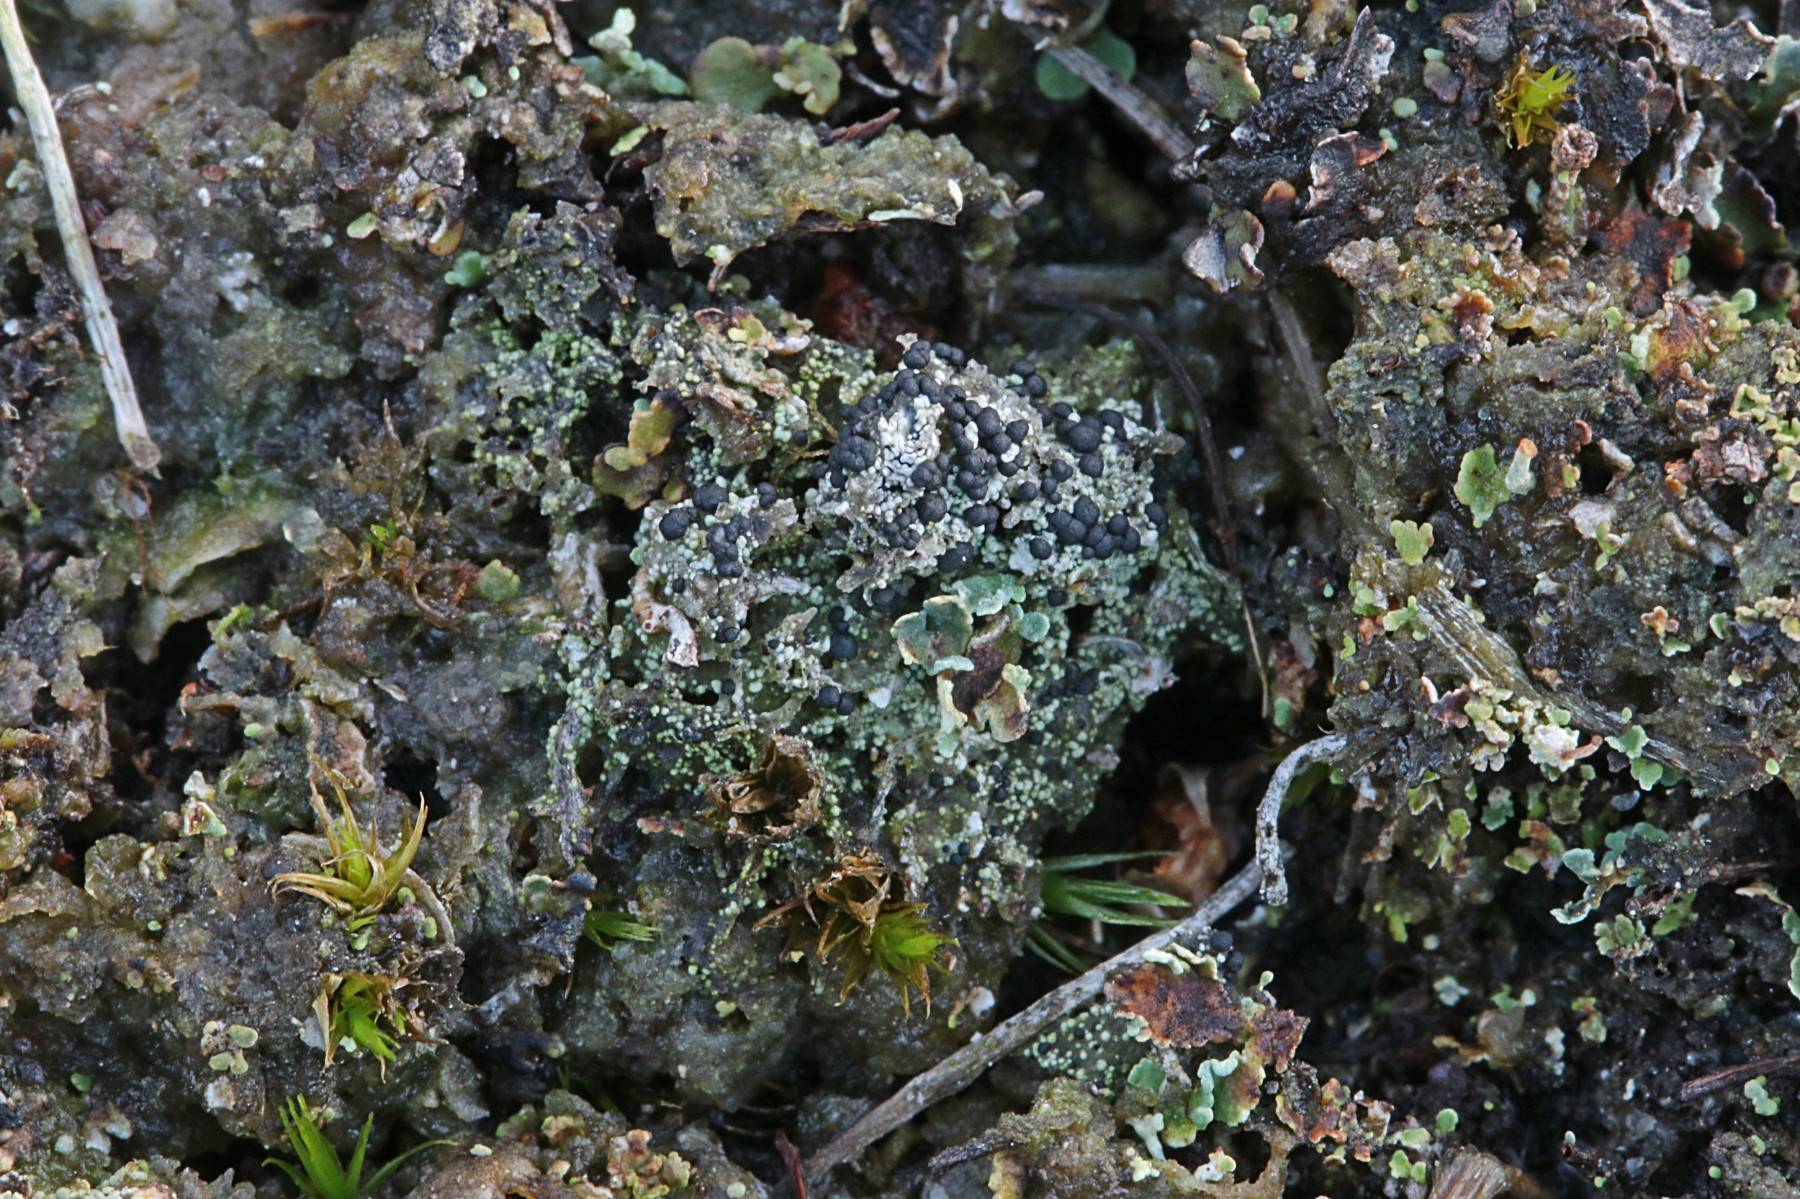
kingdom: Fungi
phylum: Ascomycota
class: Lecanoromycetes
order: Lecanorales
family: Byssolomataceae
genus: Micarea
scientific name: Micarea lignaria
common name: tørve-knaplav
